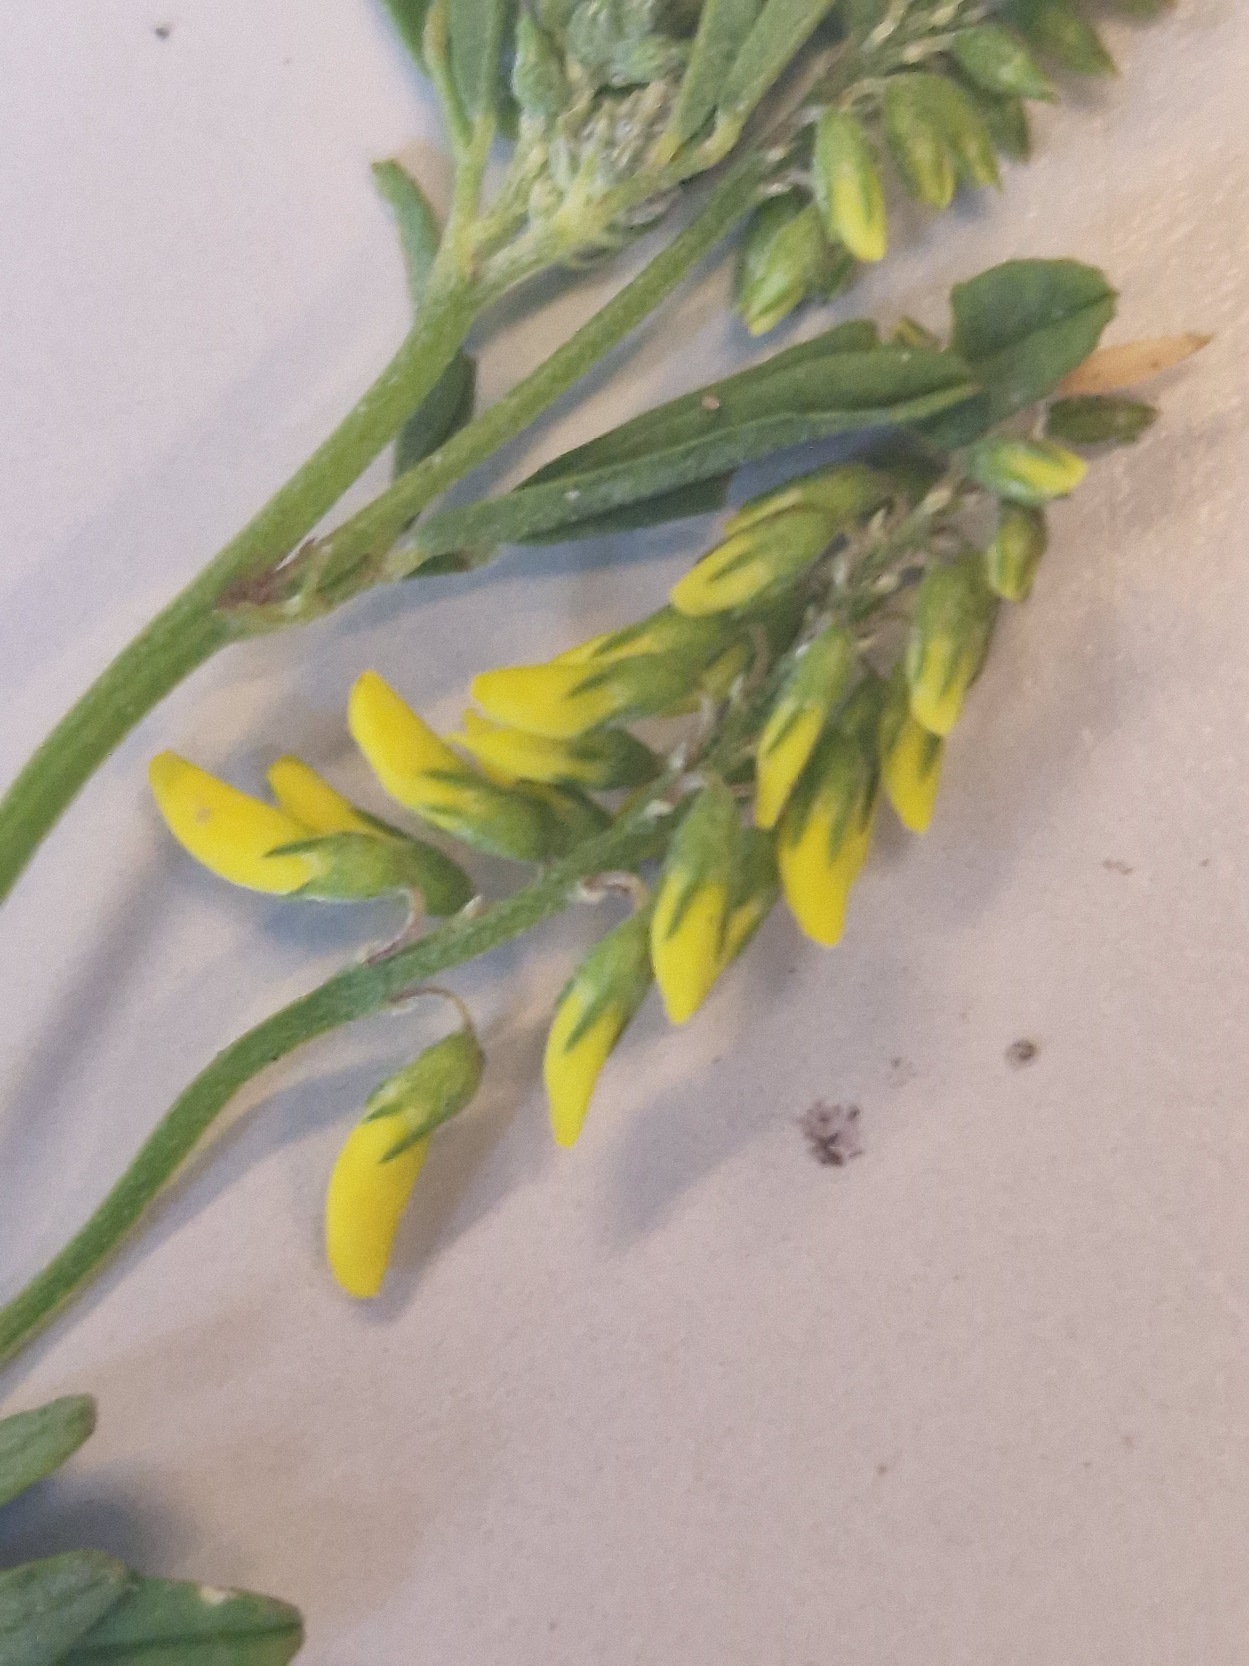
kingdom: Plantae
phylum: Tracheophyta
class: Magnoliopsida
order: Fabales
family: Fabaceae
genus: Melilotus
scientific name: Melilotus
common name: Stenkløverslægten
